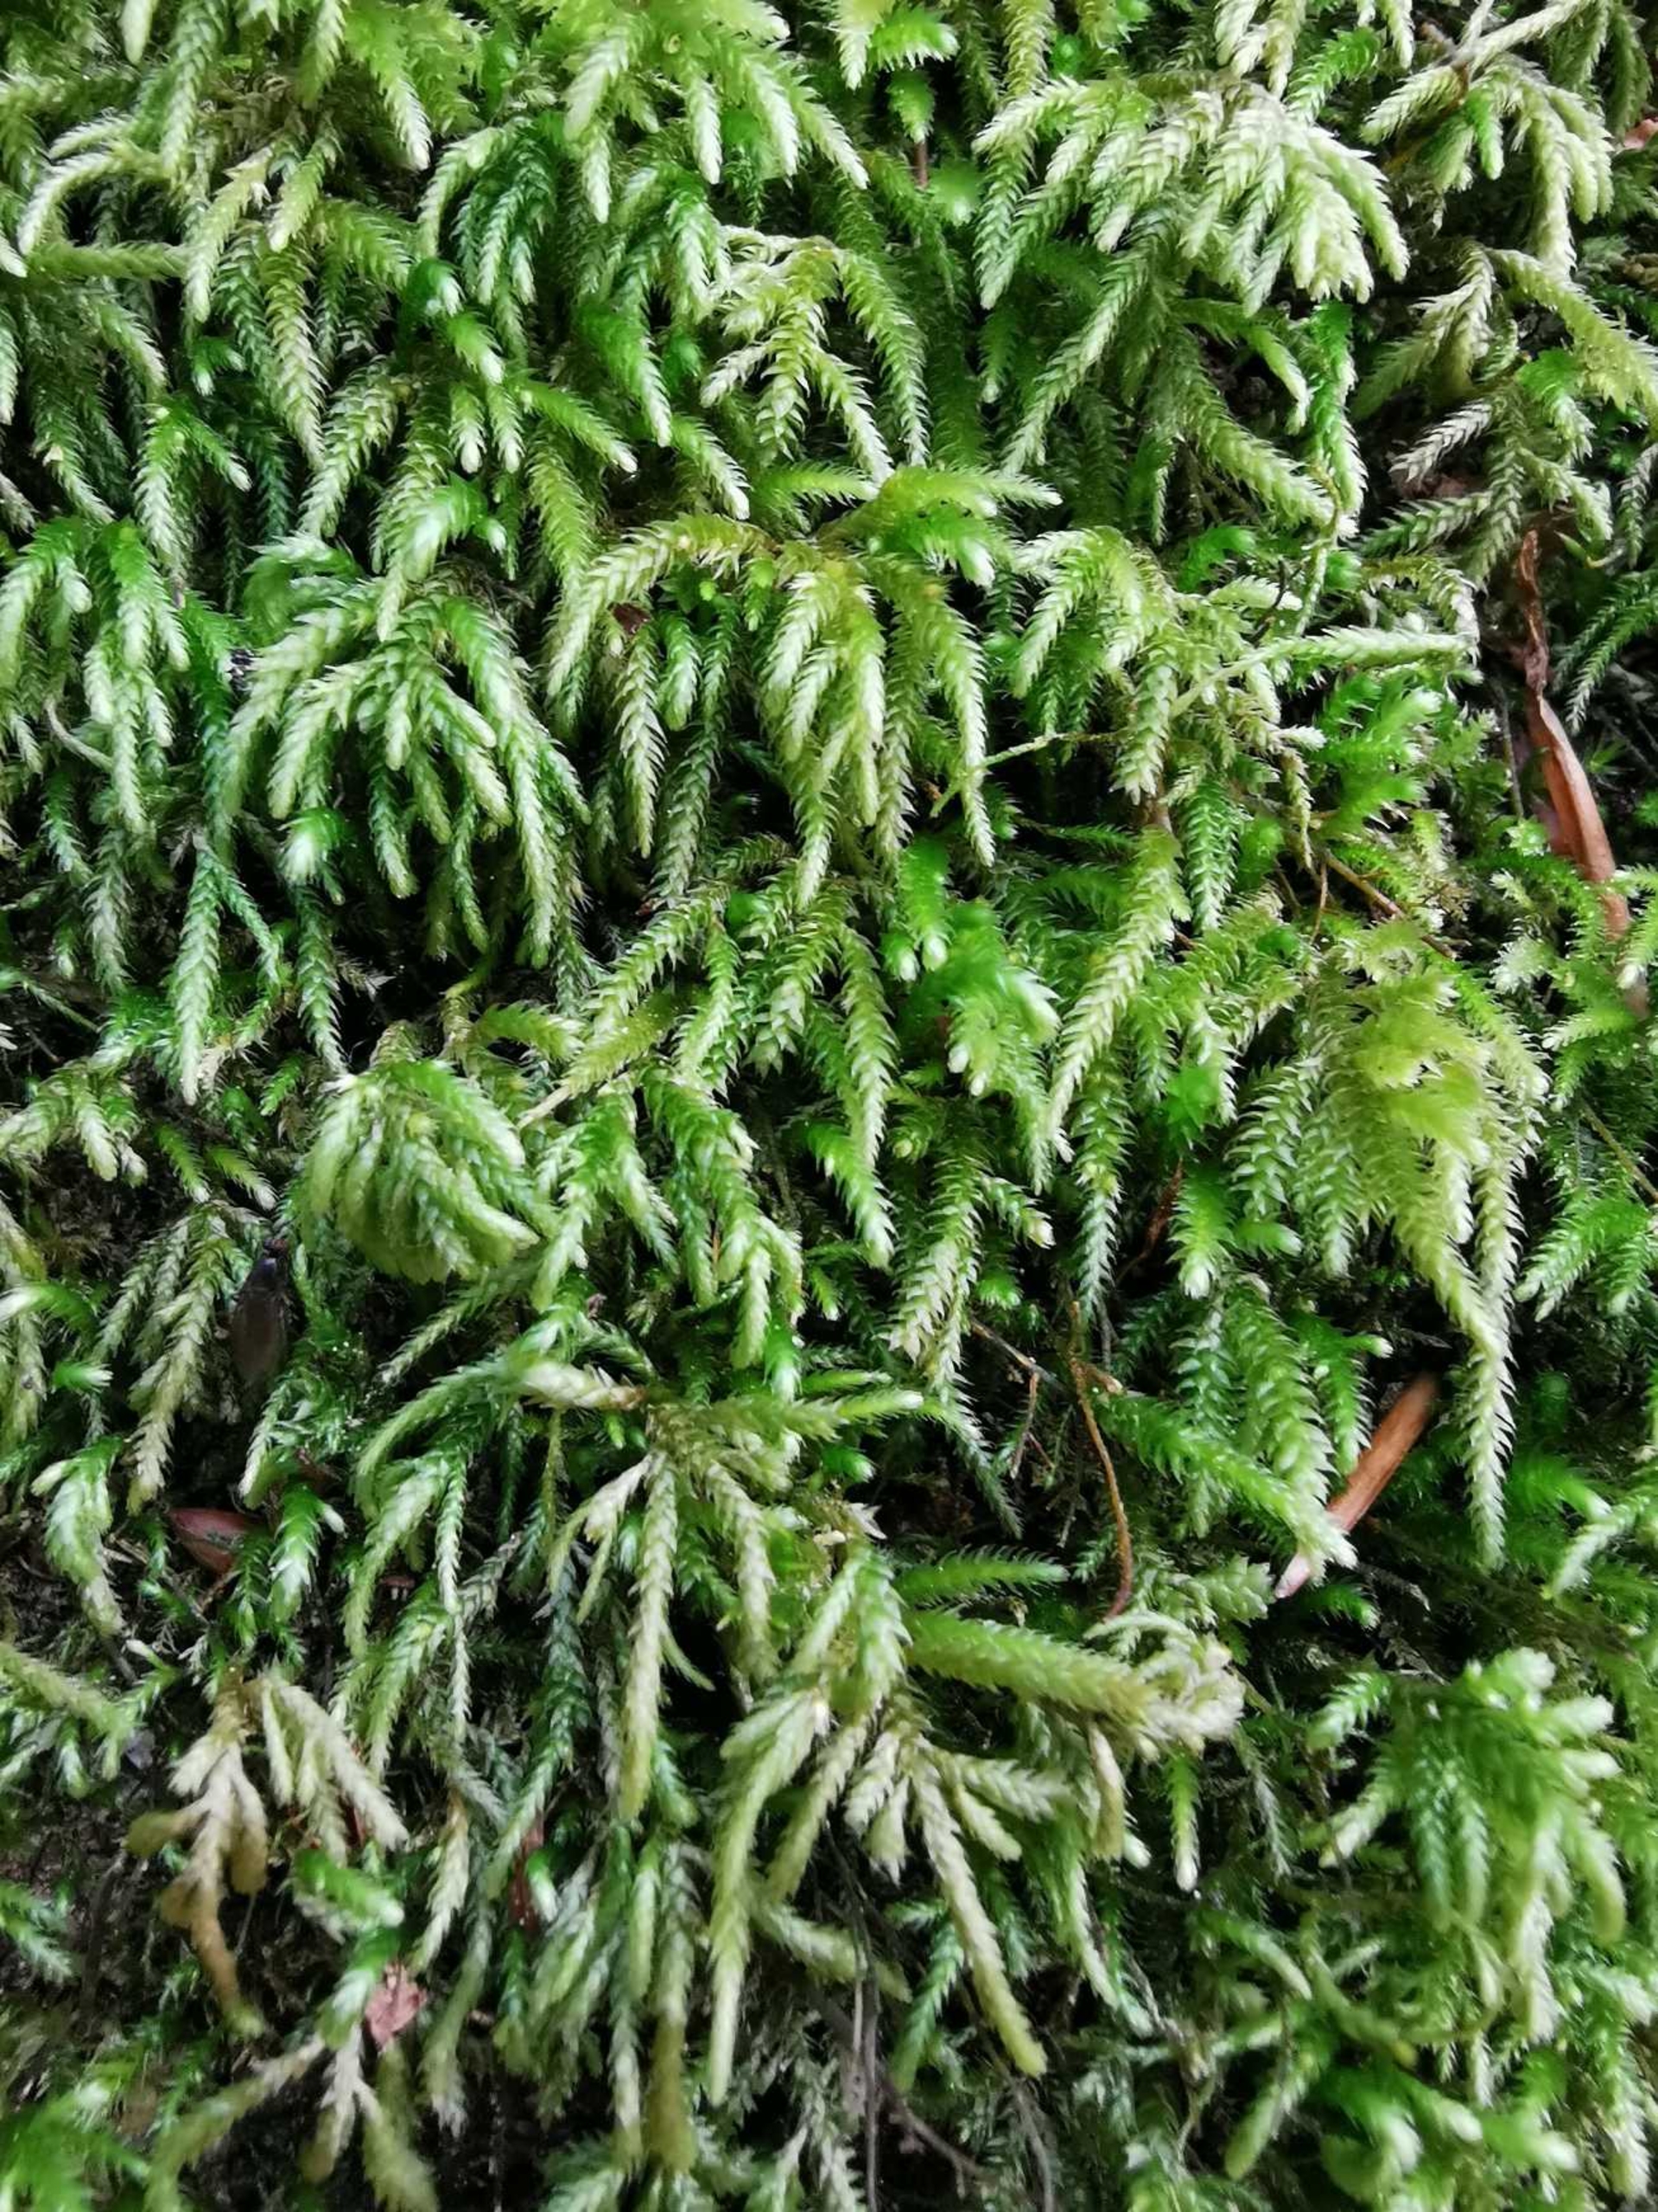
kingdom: Plantae
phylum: Bryophyta
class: Bryopsida
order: Hypnales
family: Lembophyllaceae
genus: Nogopterium
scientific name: Nogopterium gracile
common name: Tæt fugleklomos
